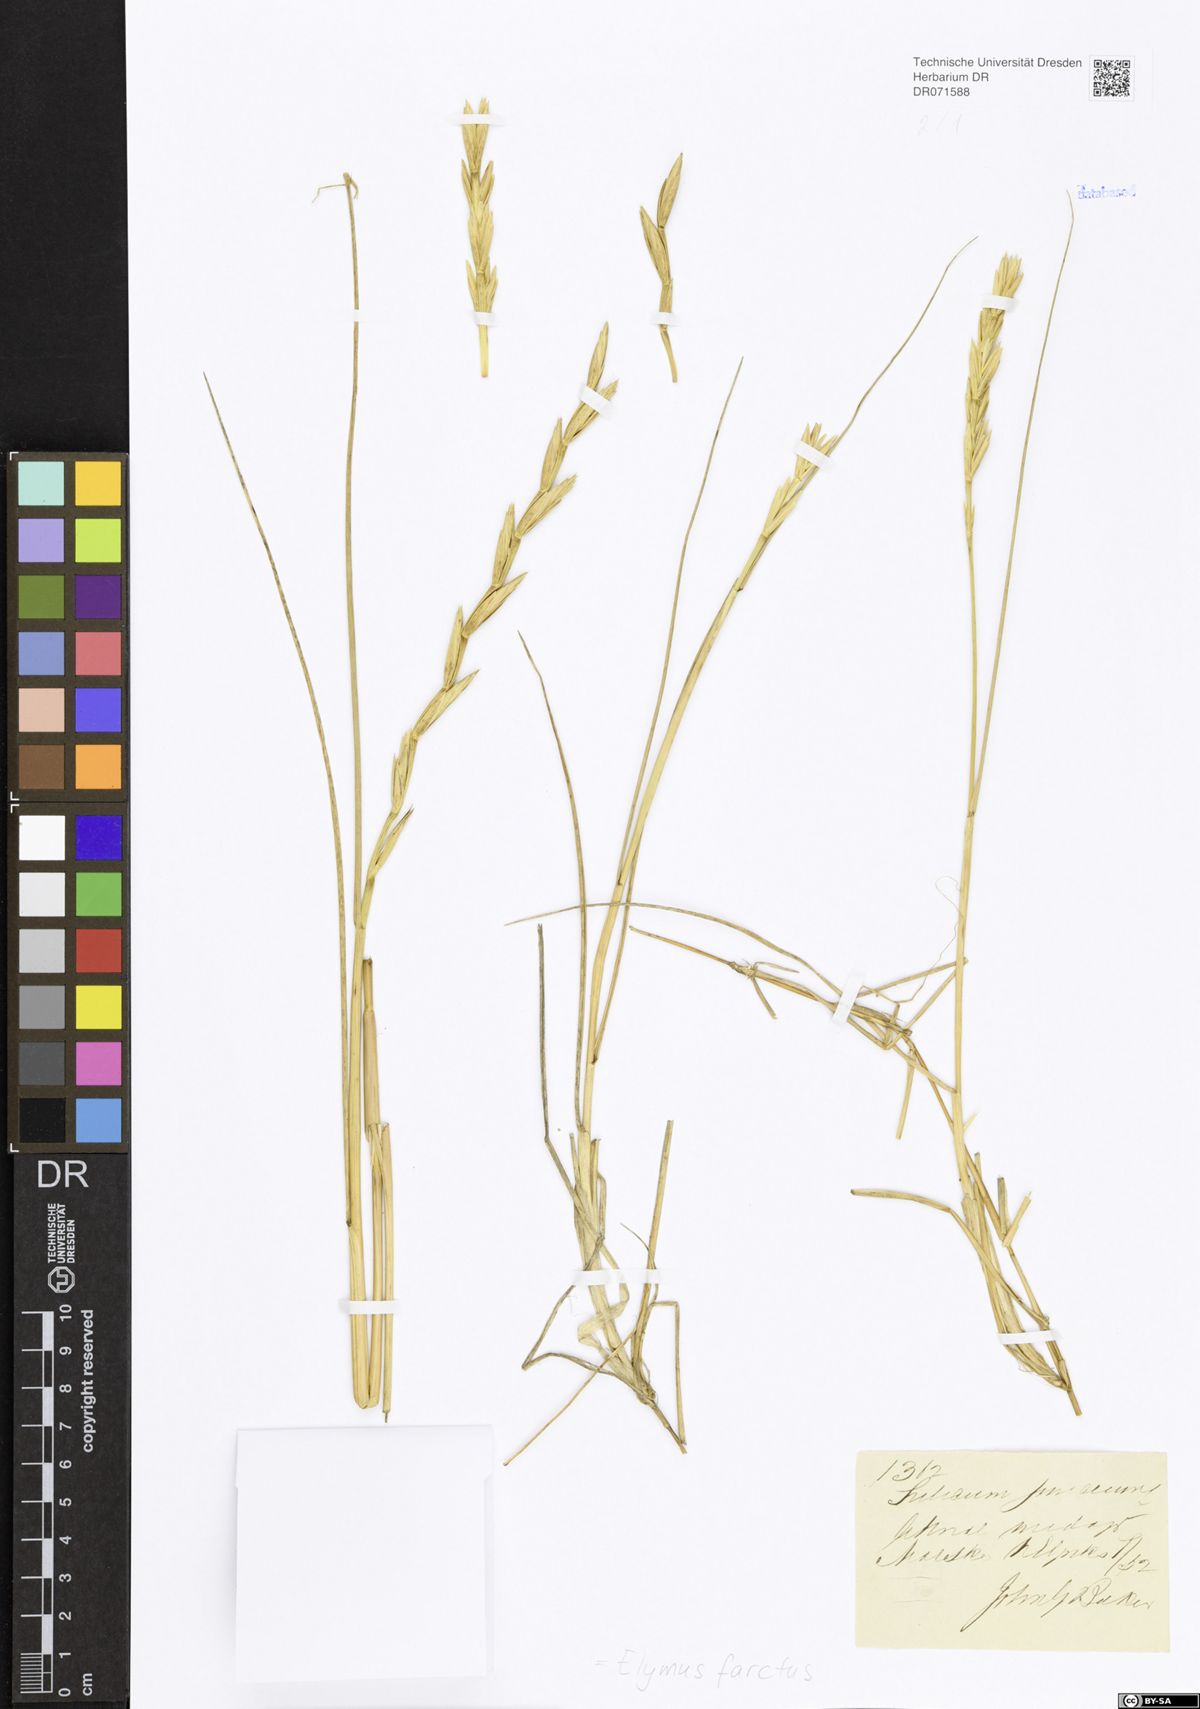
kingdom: Plantae
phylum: Tracheophyta
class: Liliopsida
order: Poales
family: Poaceae
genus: Thinopyrum
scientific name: Thinopyrum junceum
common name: Russian wheatgrass
